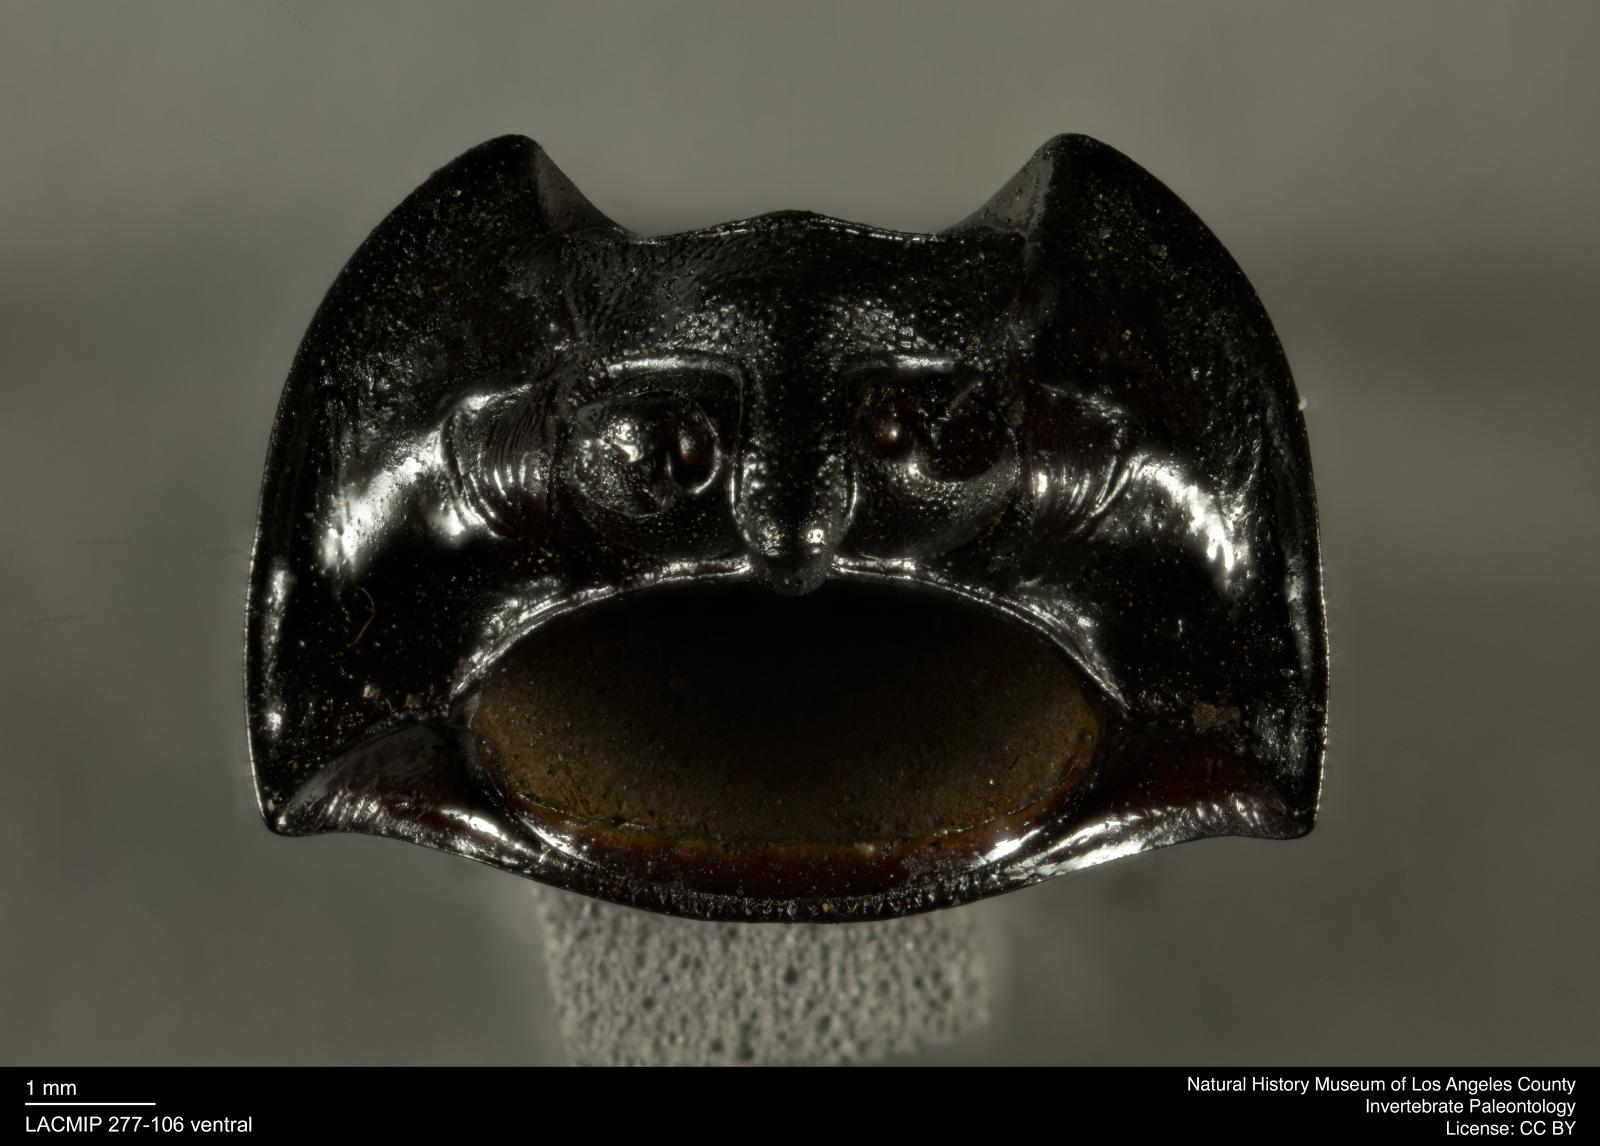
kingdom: Animalia
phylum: Arthropoda
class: Insecta
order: Coleoptera
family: Tenebrionidae
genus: Coniontis
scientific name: Coniontis abdominalis
